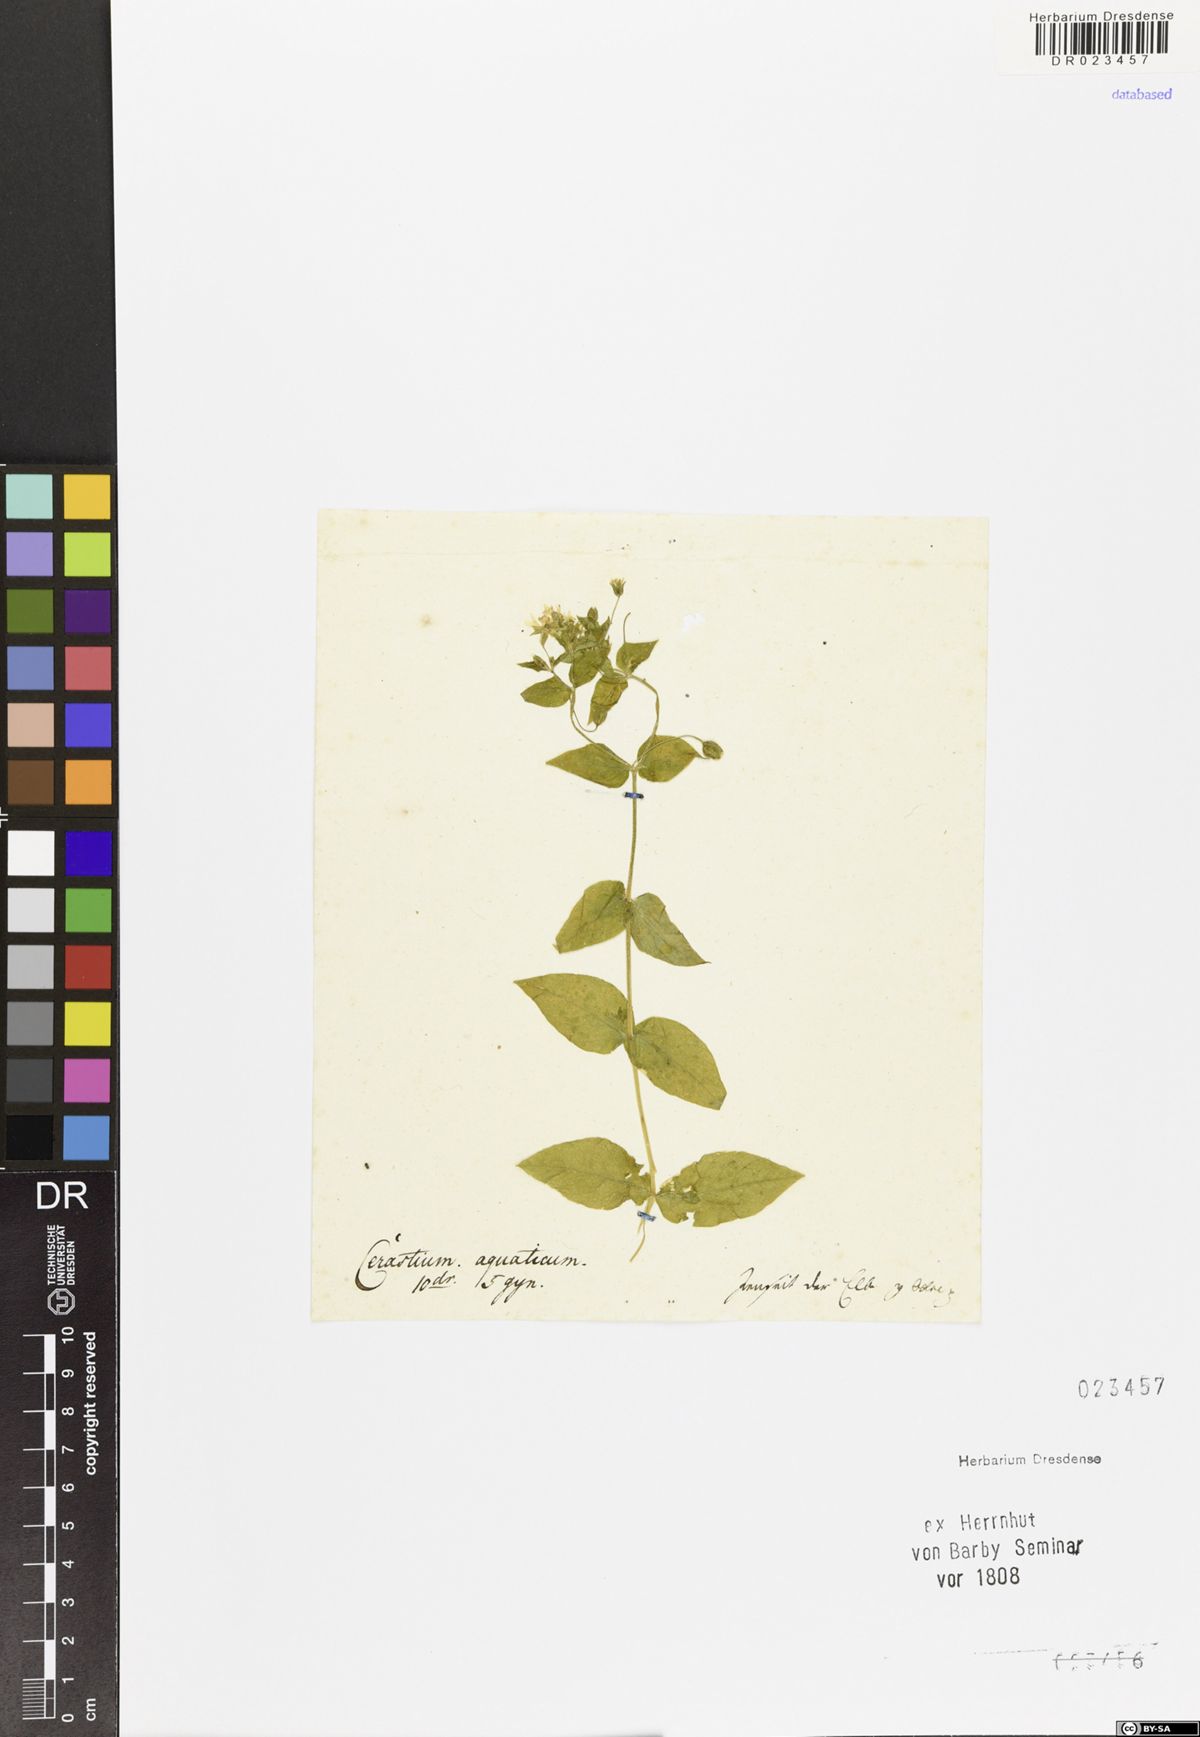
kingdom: Plantae
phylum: Tracheophyta
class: Magnoliopsida
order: Caryophyllales
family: Caryophyllaceae
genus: Stellaria
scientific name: Stellaria aquatica
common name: Water chickweed
